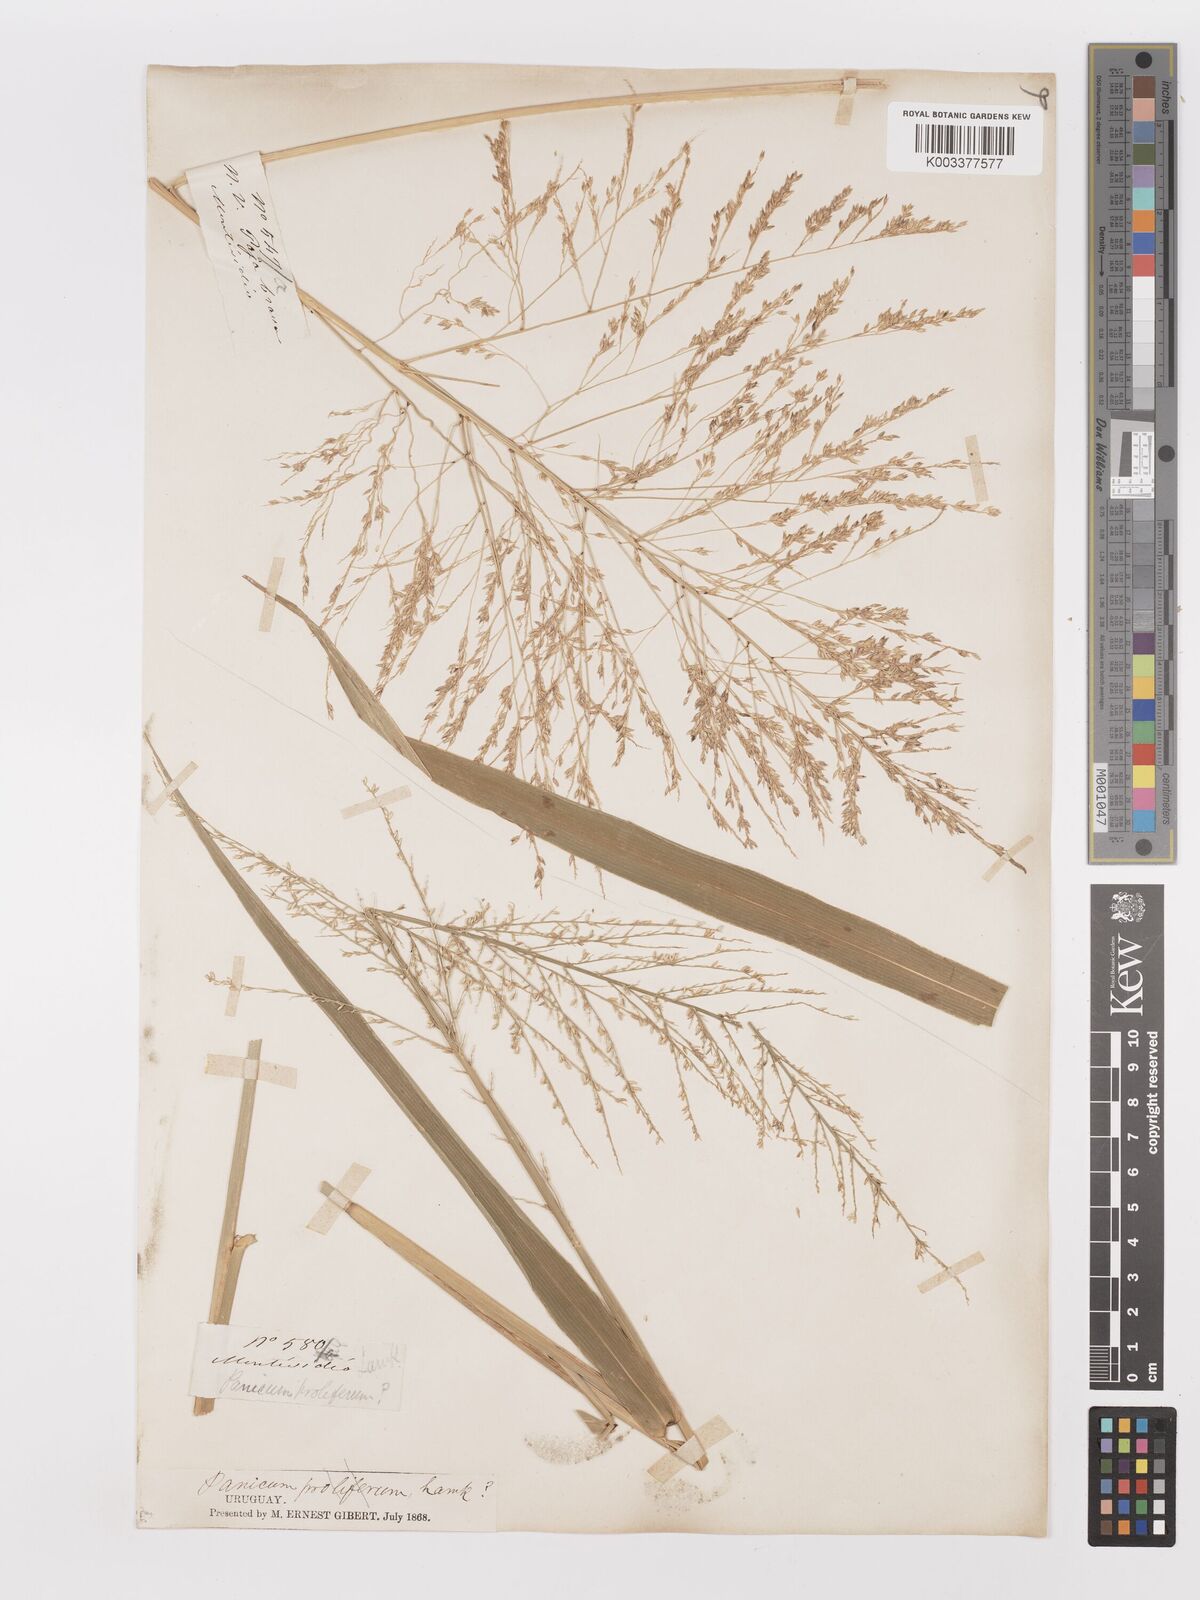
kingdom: Plantae
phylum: Tracheophyta
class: Liliopsida
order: Poales
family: Poaceae
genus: Urochloa
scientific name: Urochloa reptans
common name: Sprawling signalgrass
